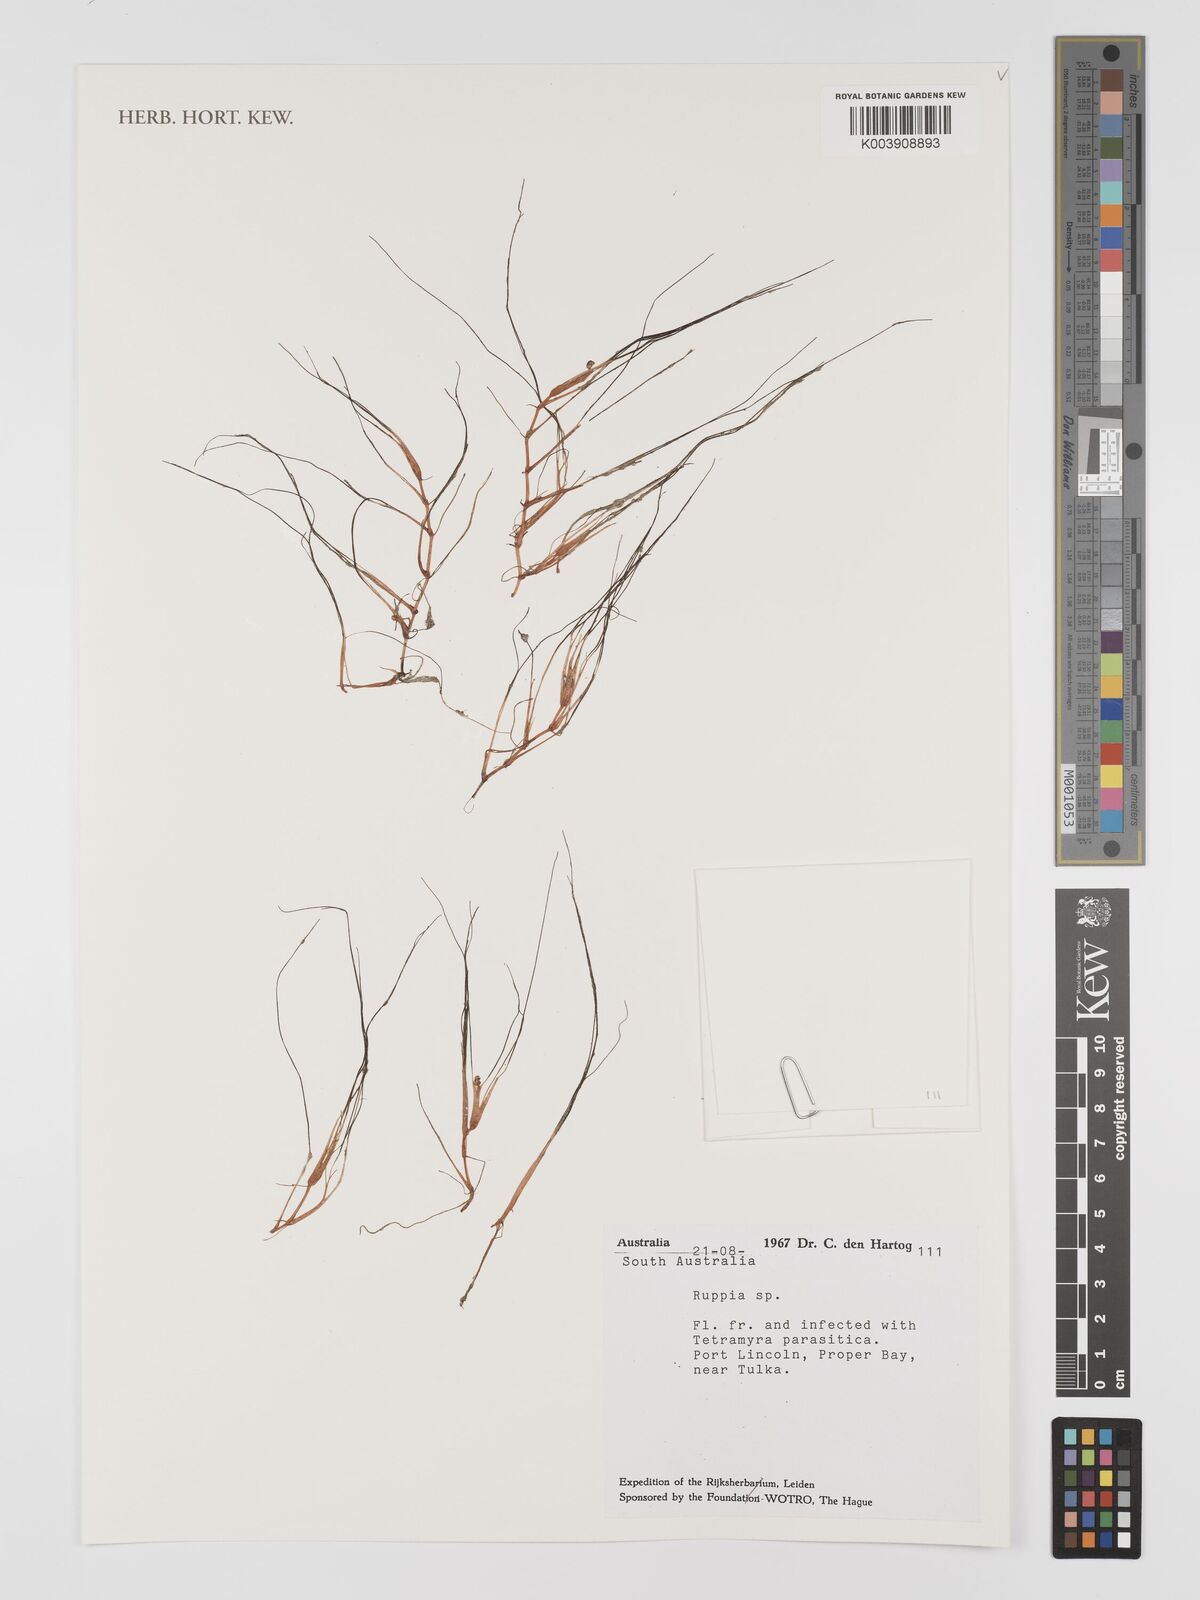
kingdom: Plantae
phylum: Tracheophyta
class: Liliopsida
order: Alismatales
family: Ruppiaceae
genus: Ruppia
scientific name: Ruppia
